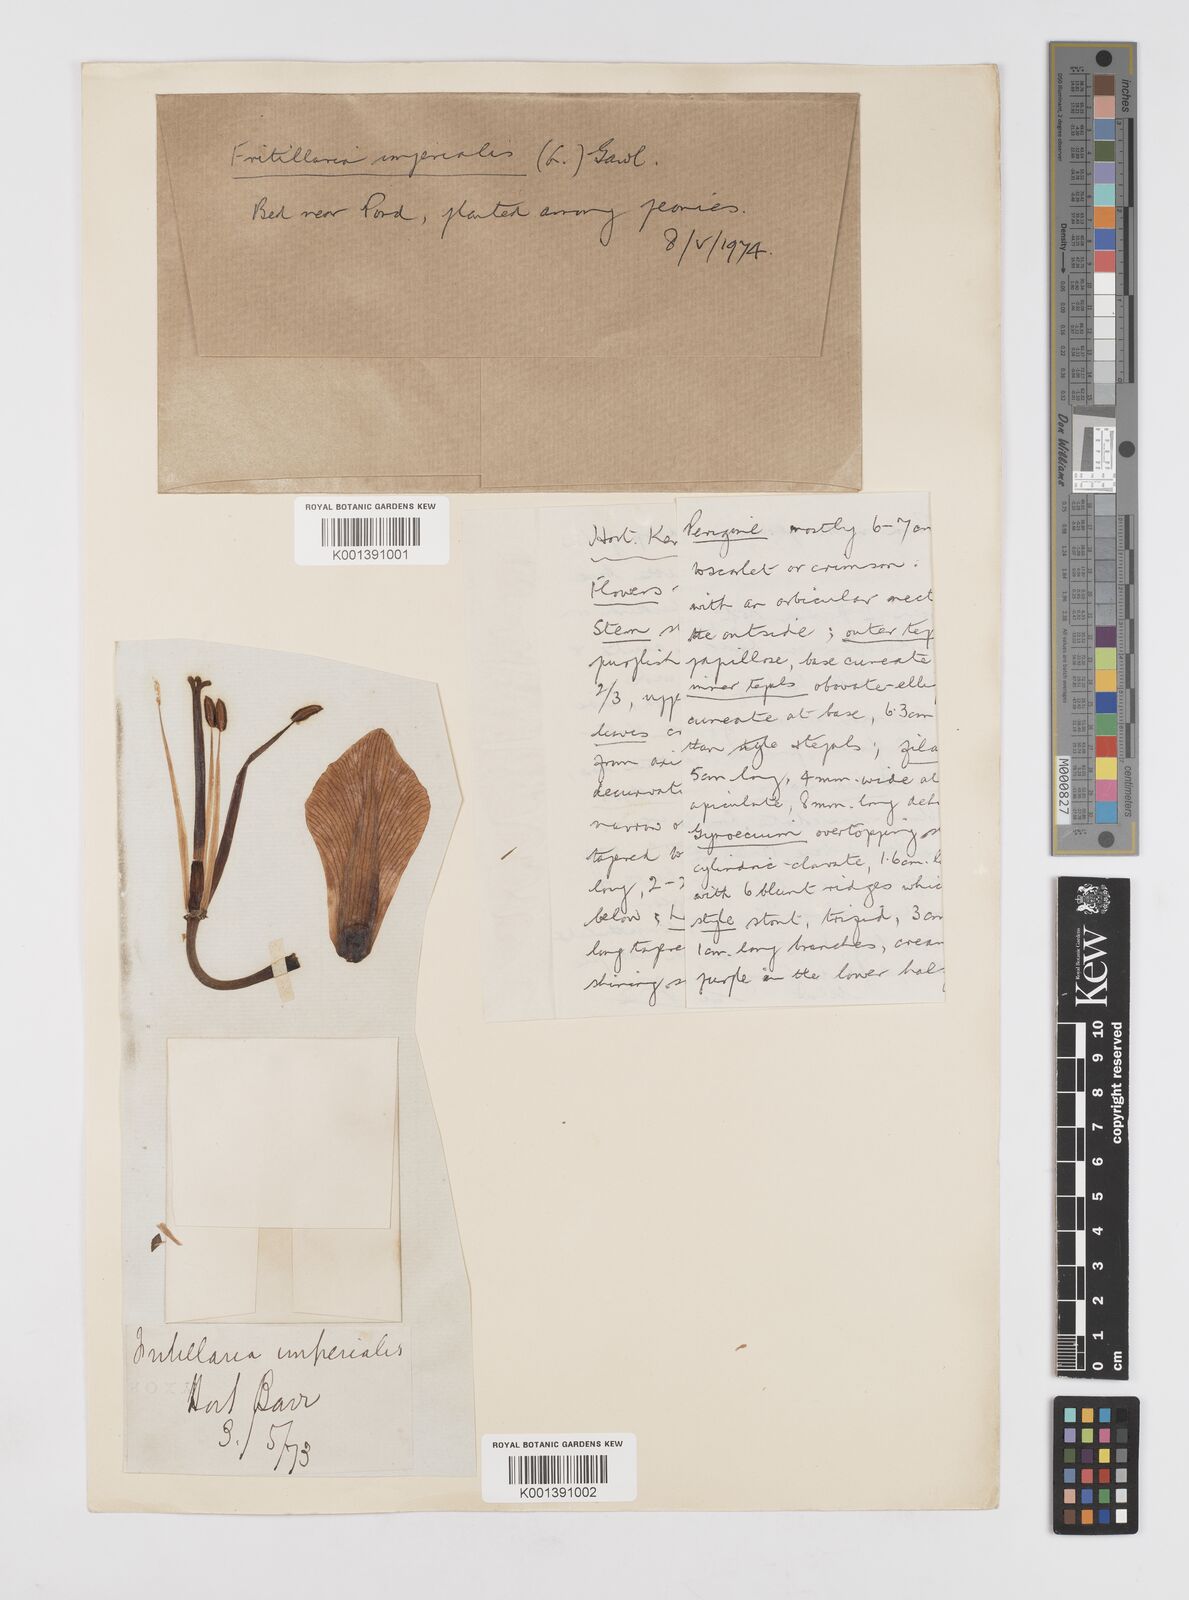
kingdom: Plantae
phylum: Tracheophyta
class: Liliopsida
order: Liliales
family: Liliaceae
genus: Fritillaria
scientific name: Fritillaria imperialis
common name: Imperial fritillary
